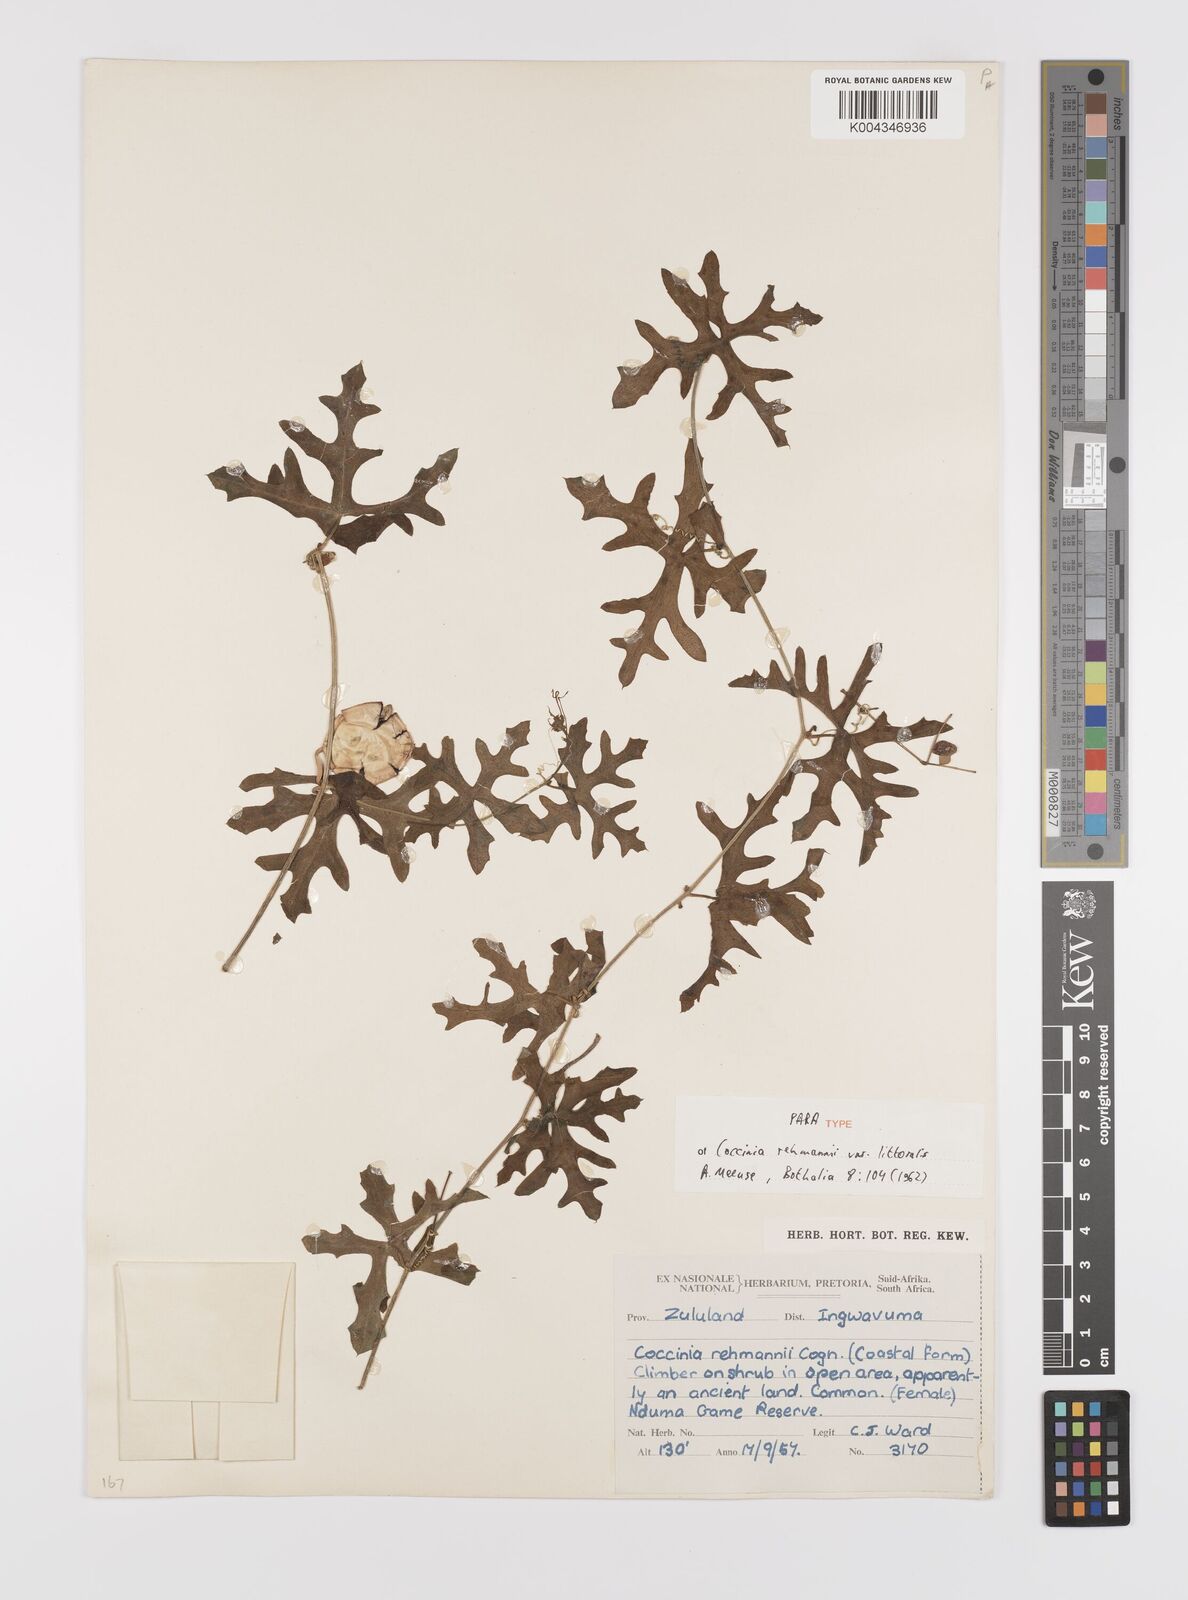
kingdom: Plantae
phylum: Tracheophyta
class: Magnoliopsida
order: Cucurbitales
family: Cucurbitaceae
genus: Coccinia
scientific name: Coccinia rehmannii
